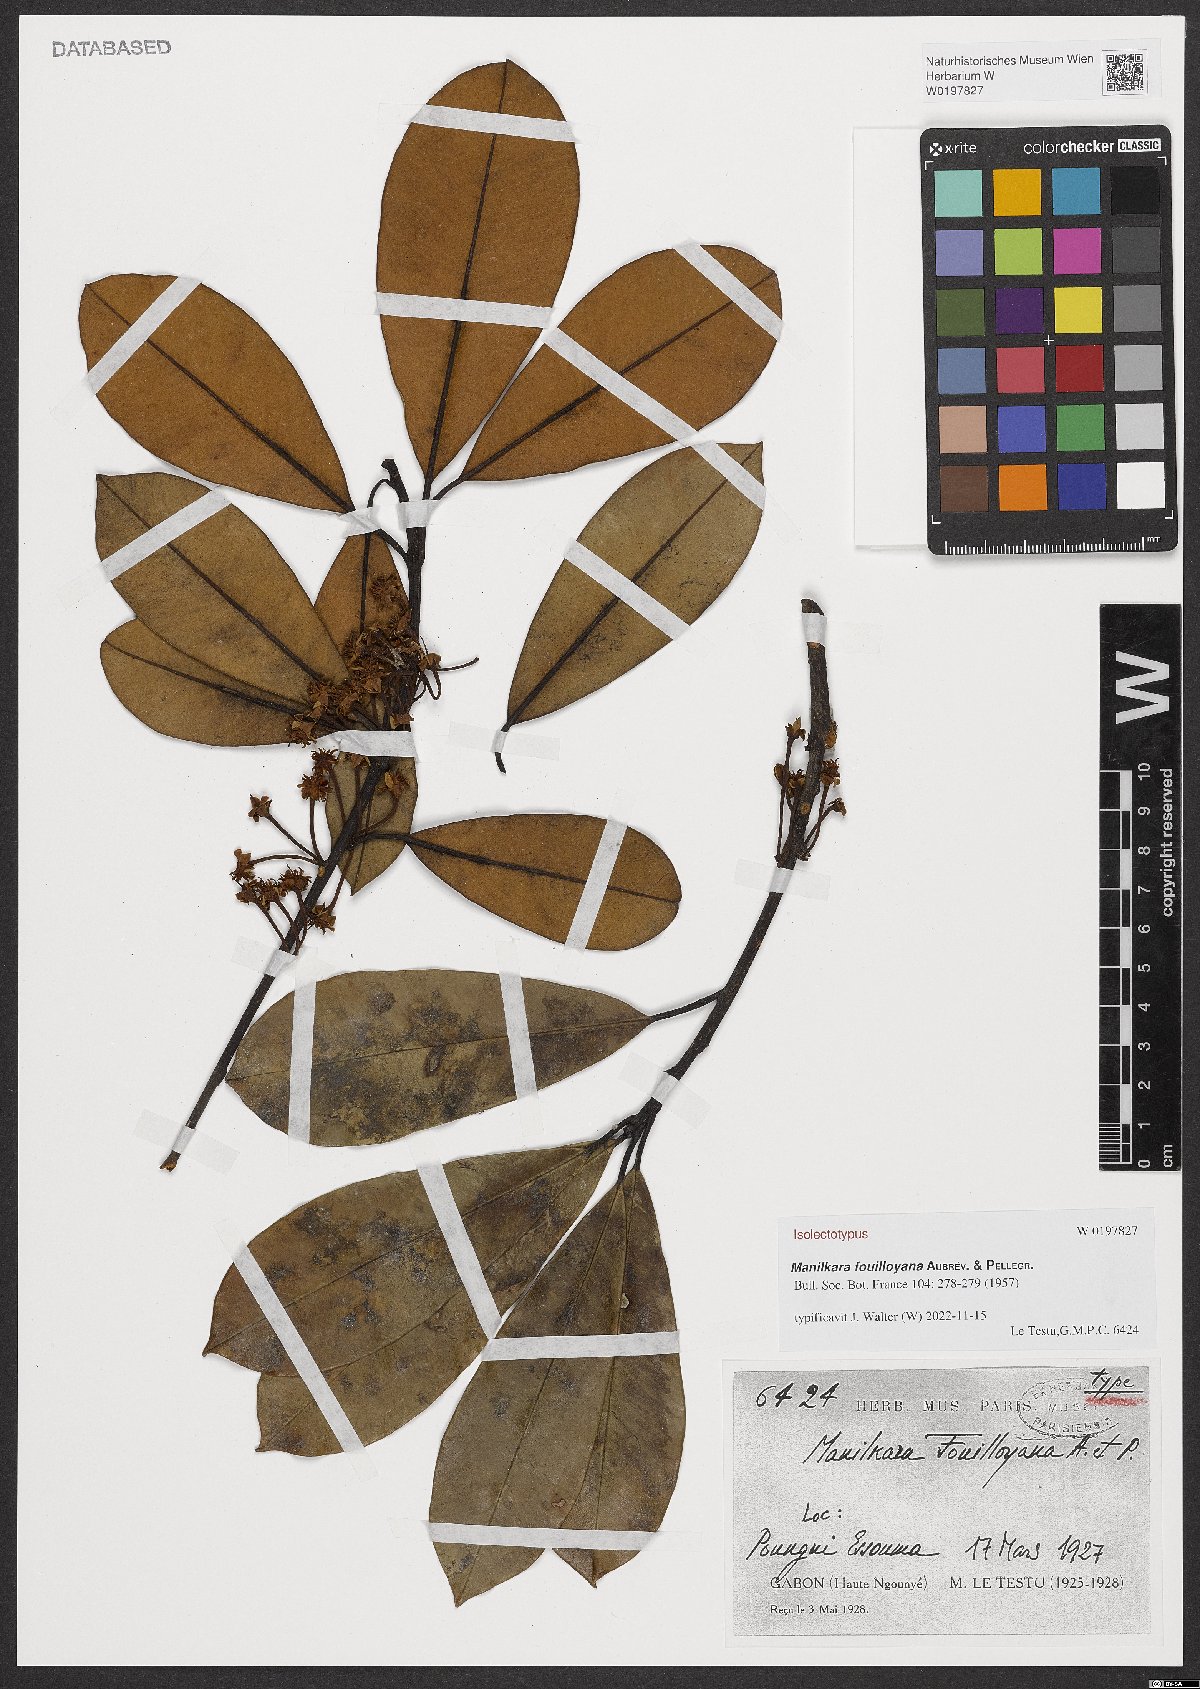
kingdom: Plantae
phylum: Tracheophyta
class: Magnoliopsida
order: Ericales
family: Sapotaceae
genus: Manilkara
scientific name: Manilkara fouilloyana
